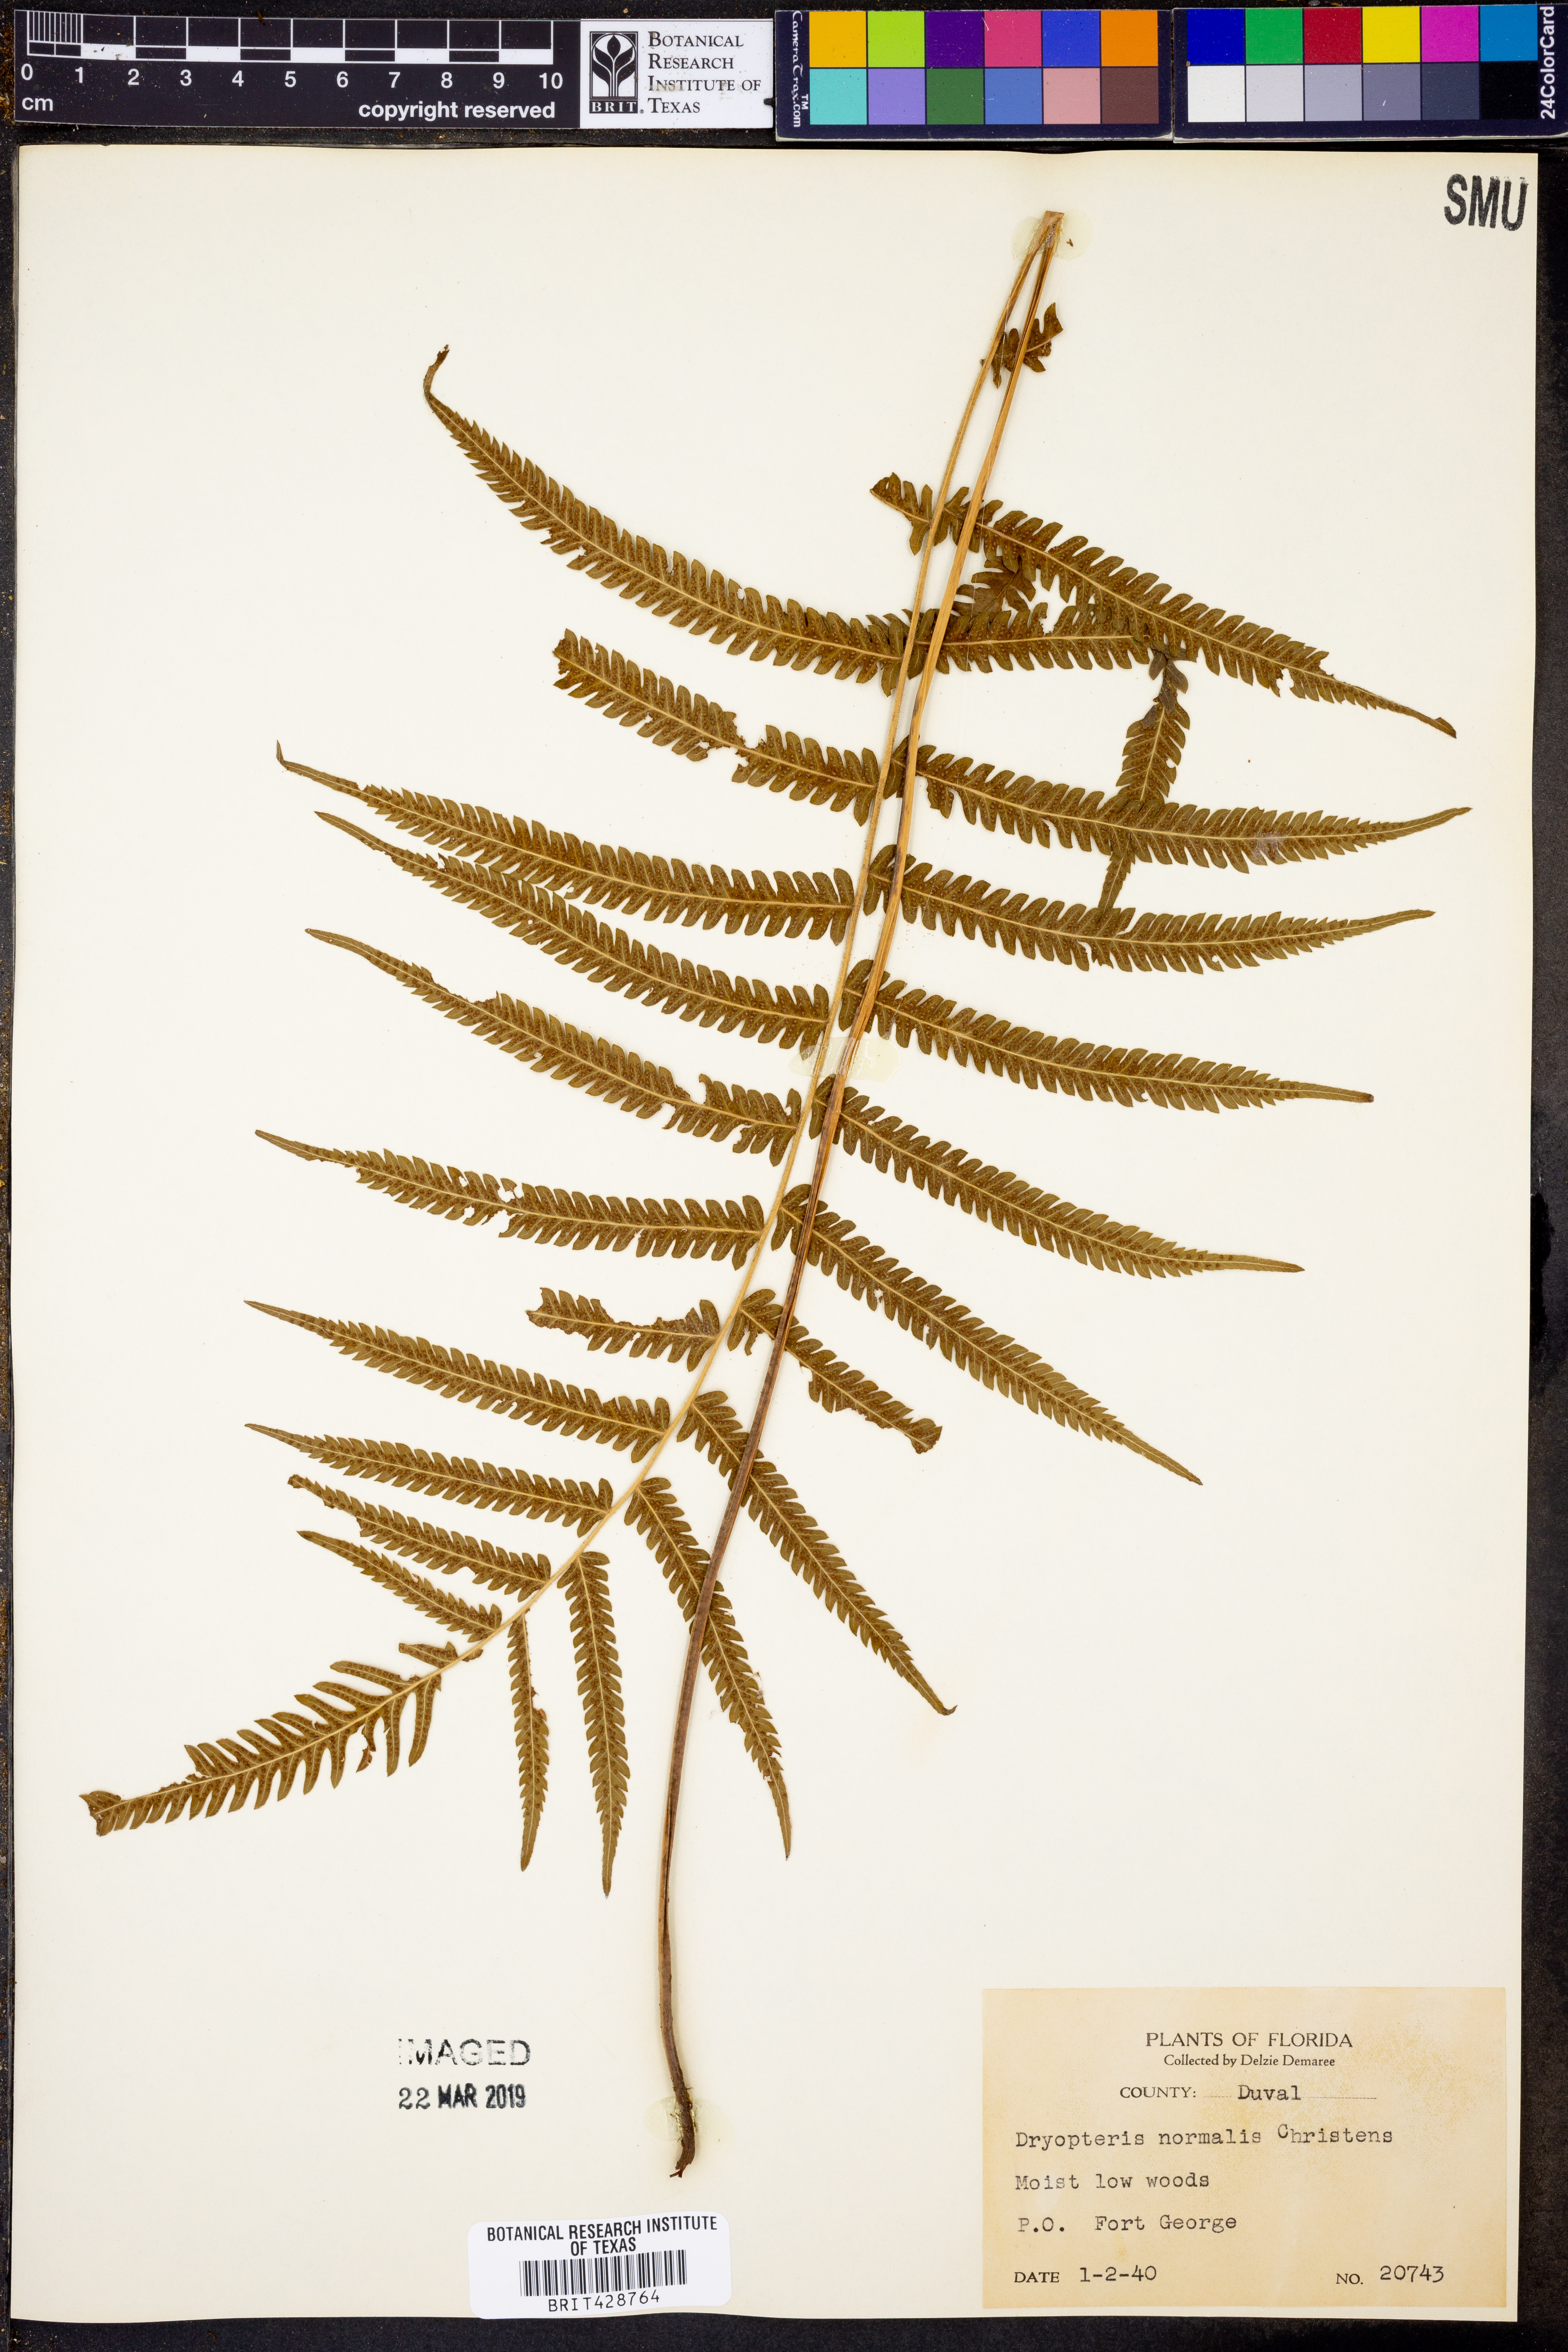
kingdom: Plantae
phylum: Tracheophyta
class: Polypodiopsida
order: Polypodiales
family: Thelypteridaceae
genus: Pelazoneuron
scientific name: Pelazoneuron kunthii
